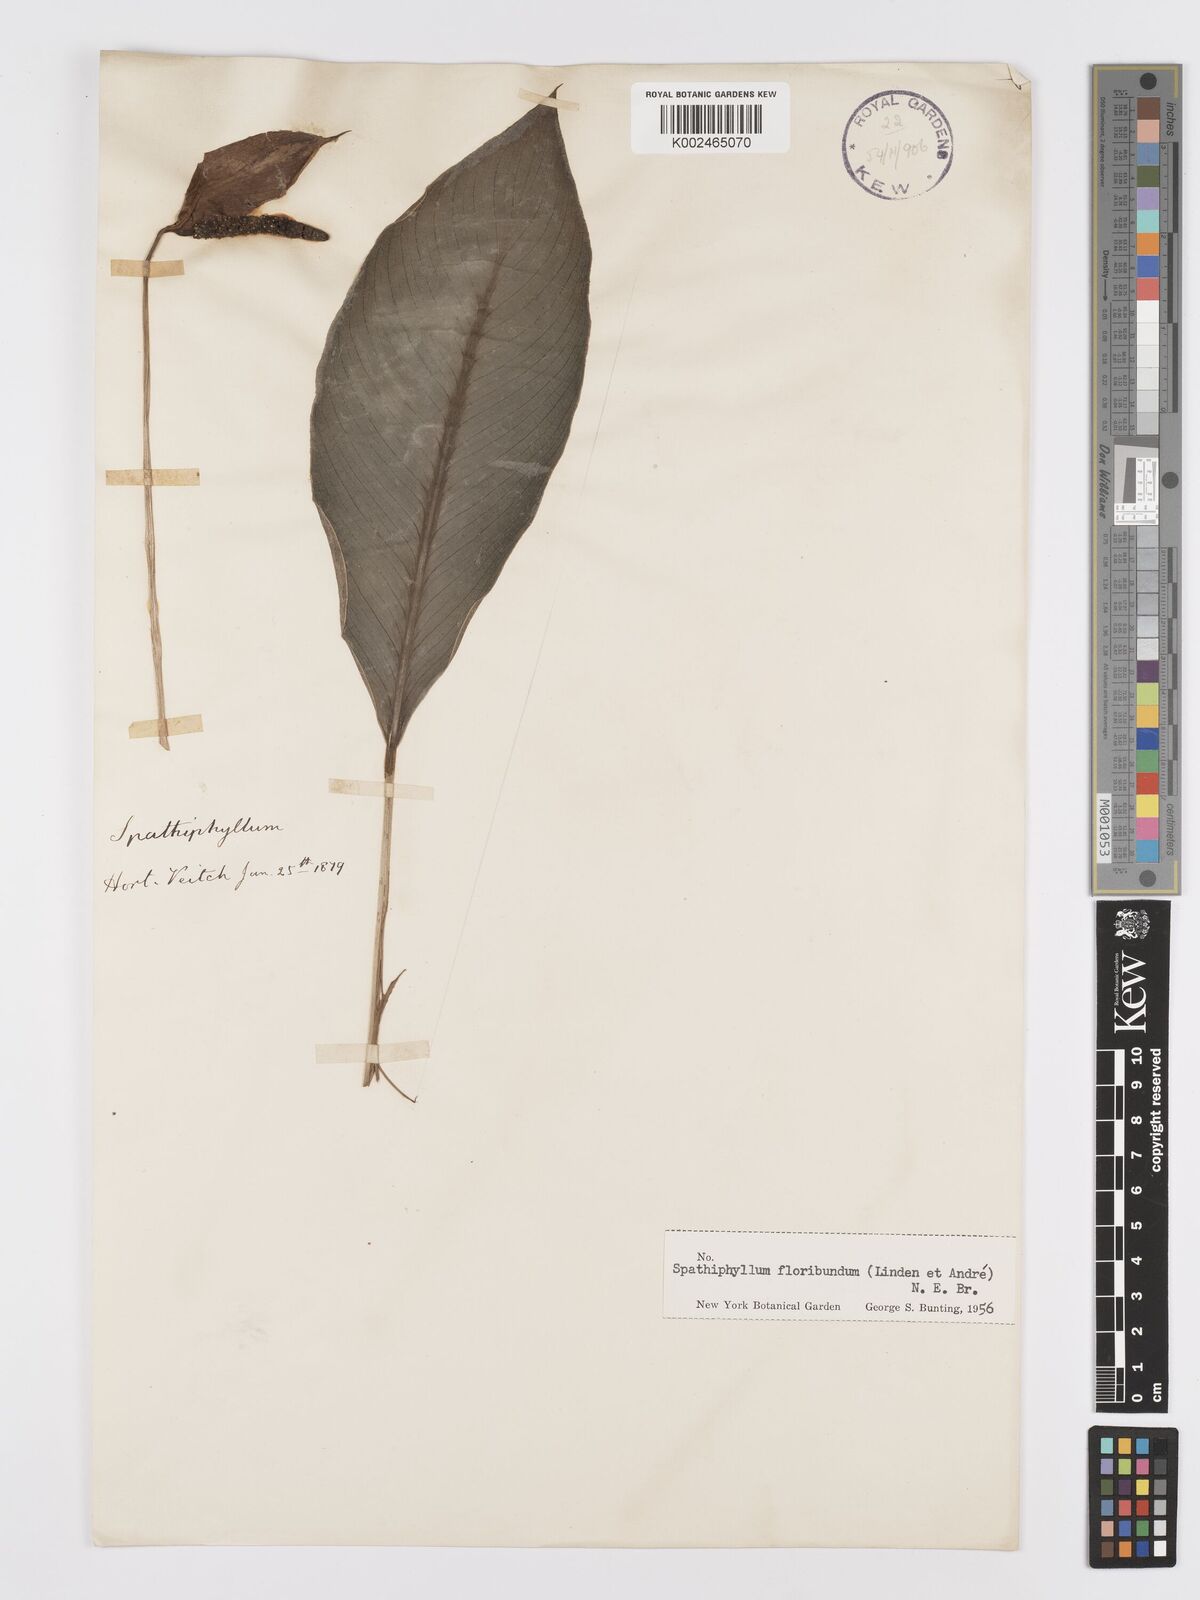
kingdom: Plantae
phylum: Tracheophyta
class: Liliopsida
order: Alismatales
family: Araceae
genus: Spathiphyllum
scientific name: Spathiphyllum floribundum
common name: Peace-lily
